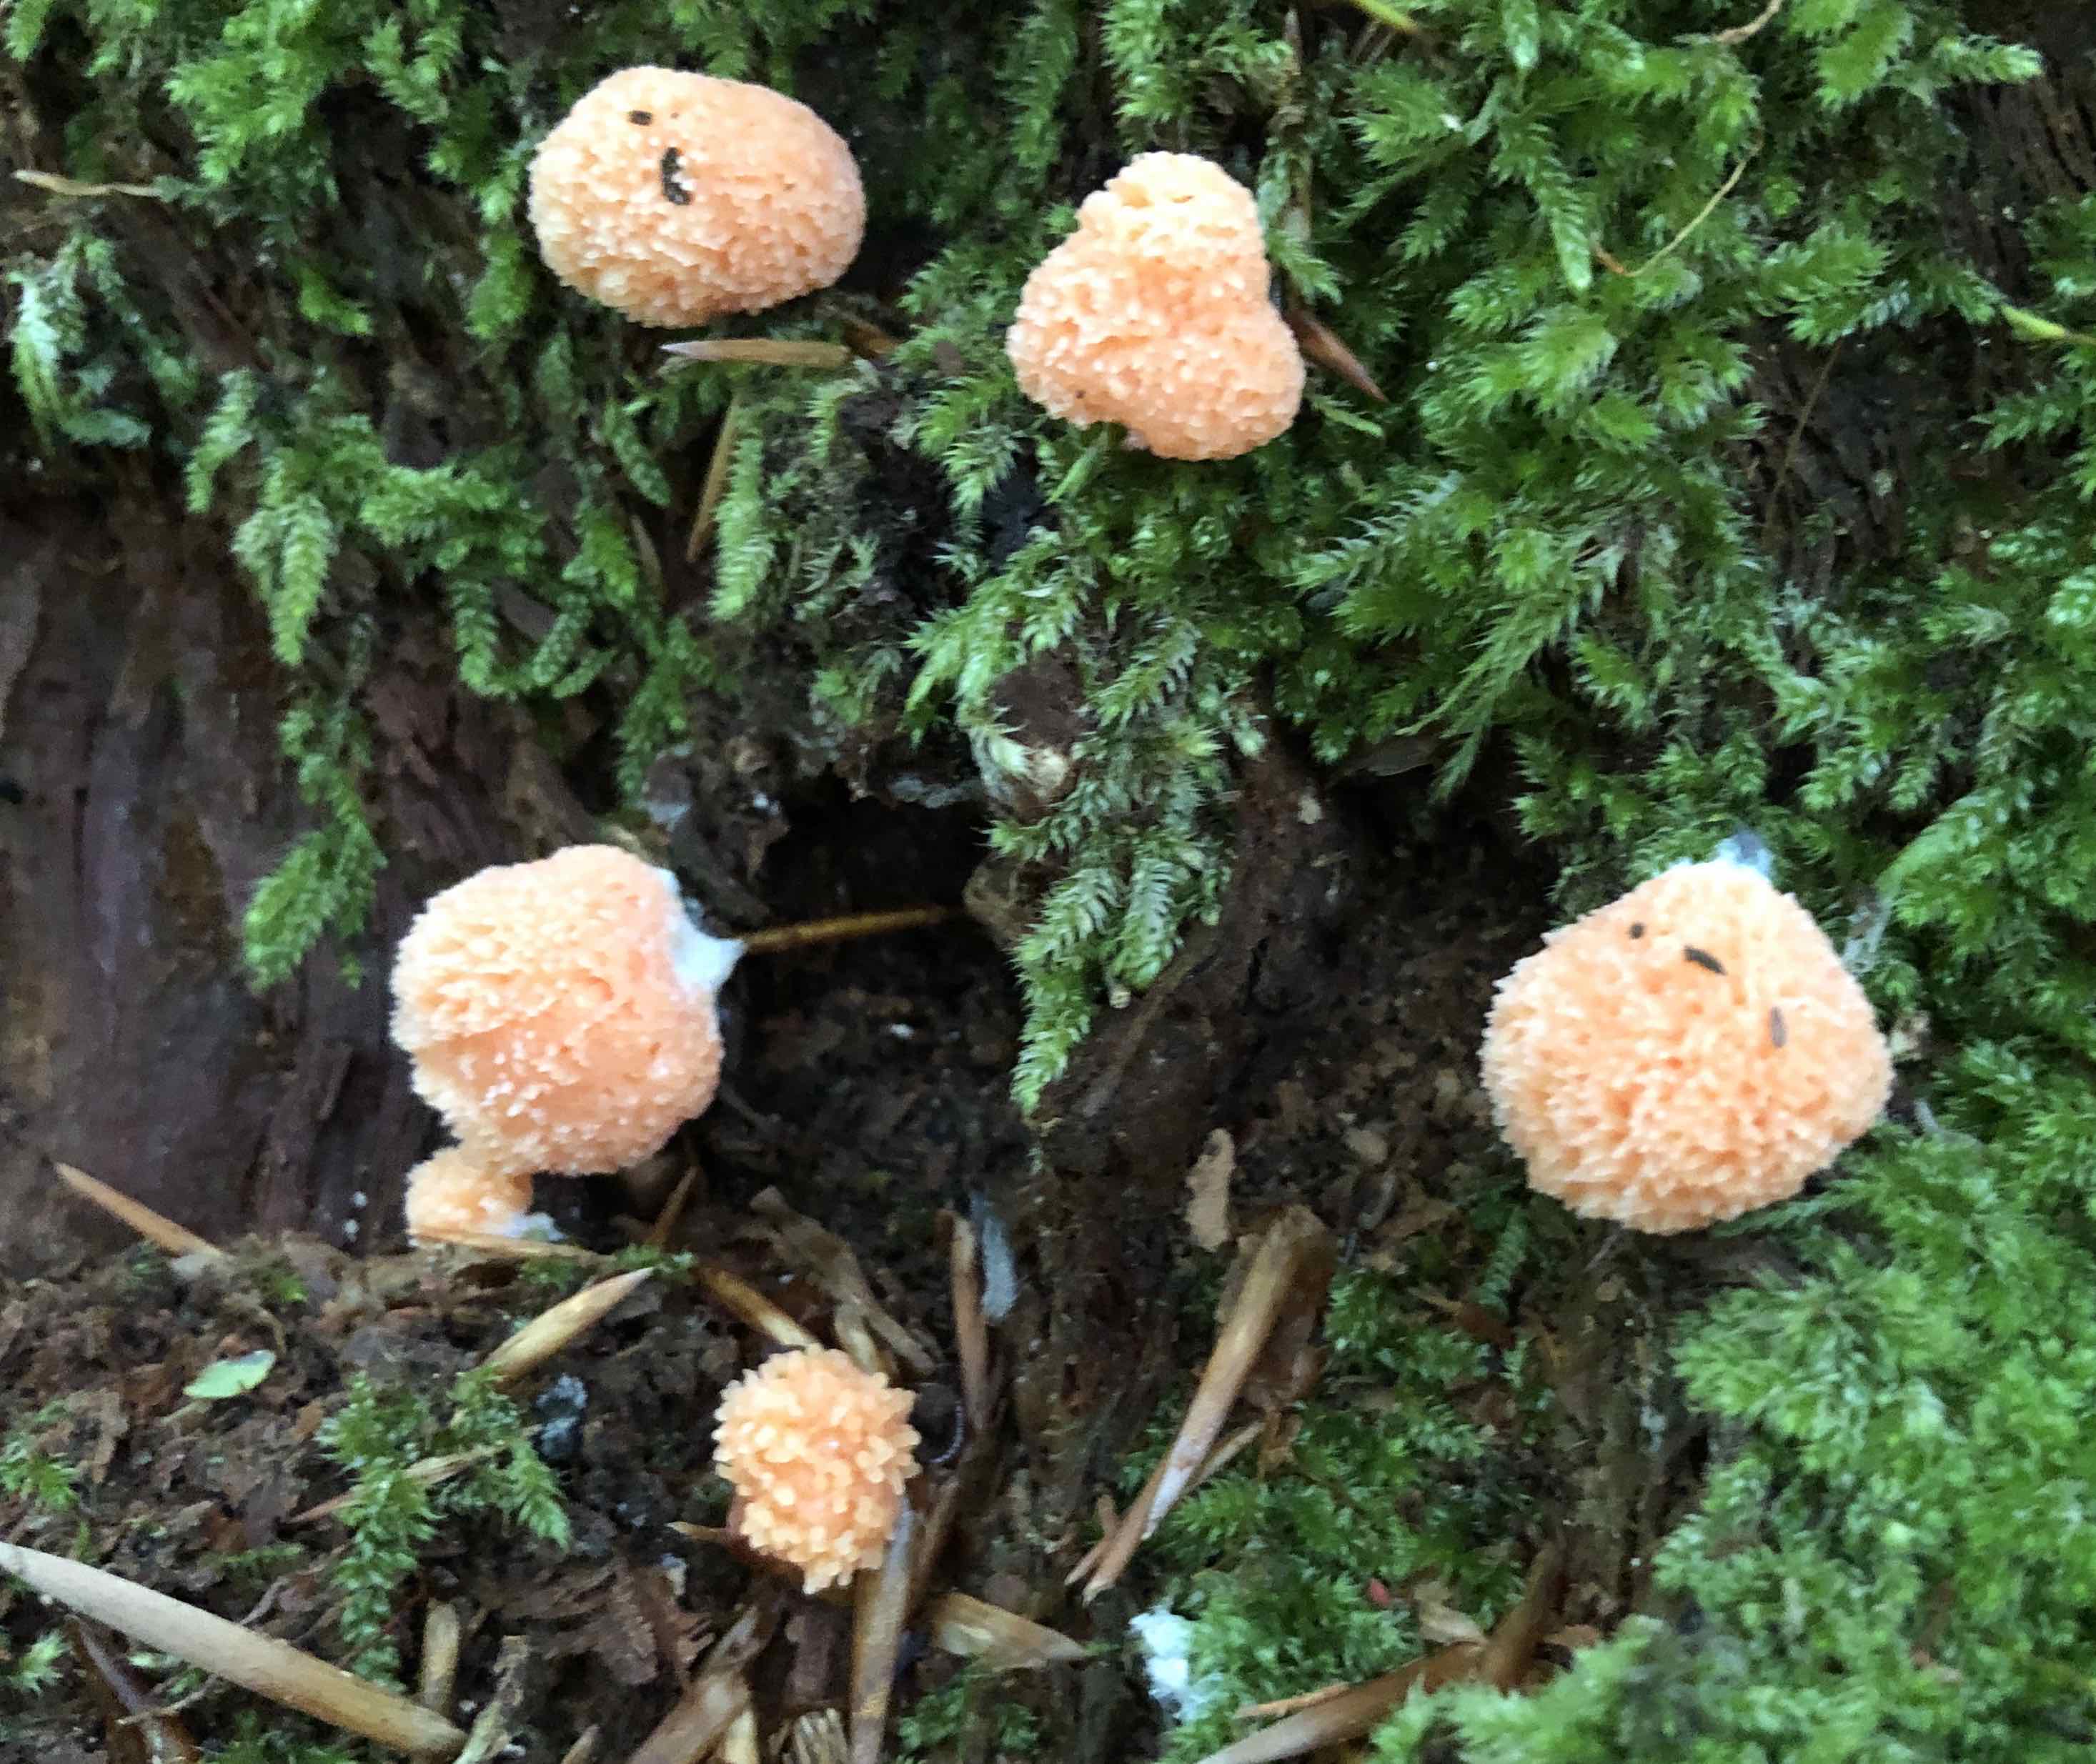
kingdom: Protozoa
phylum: Mycetozoa
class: Myxomycetes
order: Cribrariales
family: Tubiferaceae
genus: Tubifera
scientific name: Tubifera ferruginosa
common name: kanel-støvrør
